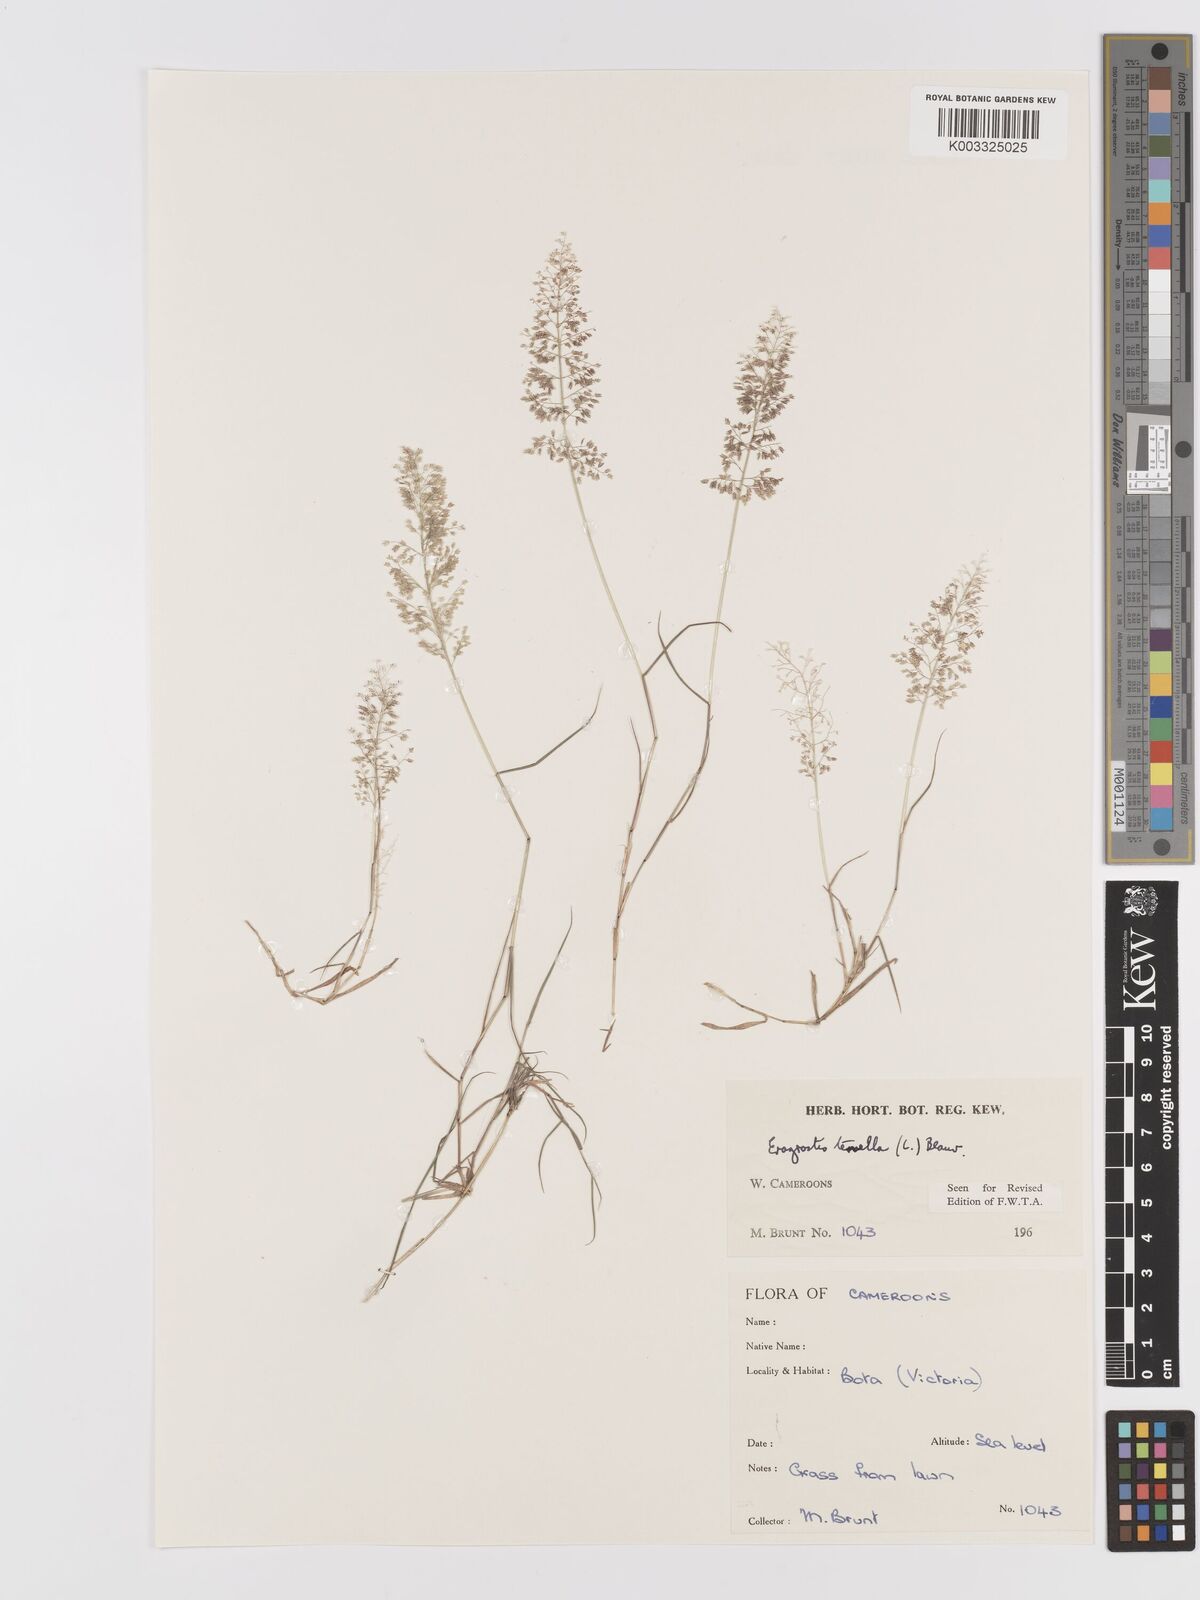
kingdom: Plantae
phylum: Tracheophyta
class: Liliopsida
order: Poales
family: Poaceae
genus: Eragrostis
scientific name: Eragrostis tenella
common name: Japanese lovegrass
